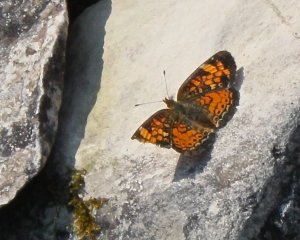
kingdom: Animalia
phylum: Arthropoda
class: Insecta
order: Lepidoptera
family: Nymphalidae
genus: Phyciodes
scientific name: Phyciodes tharos
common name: Pearl Crescent
